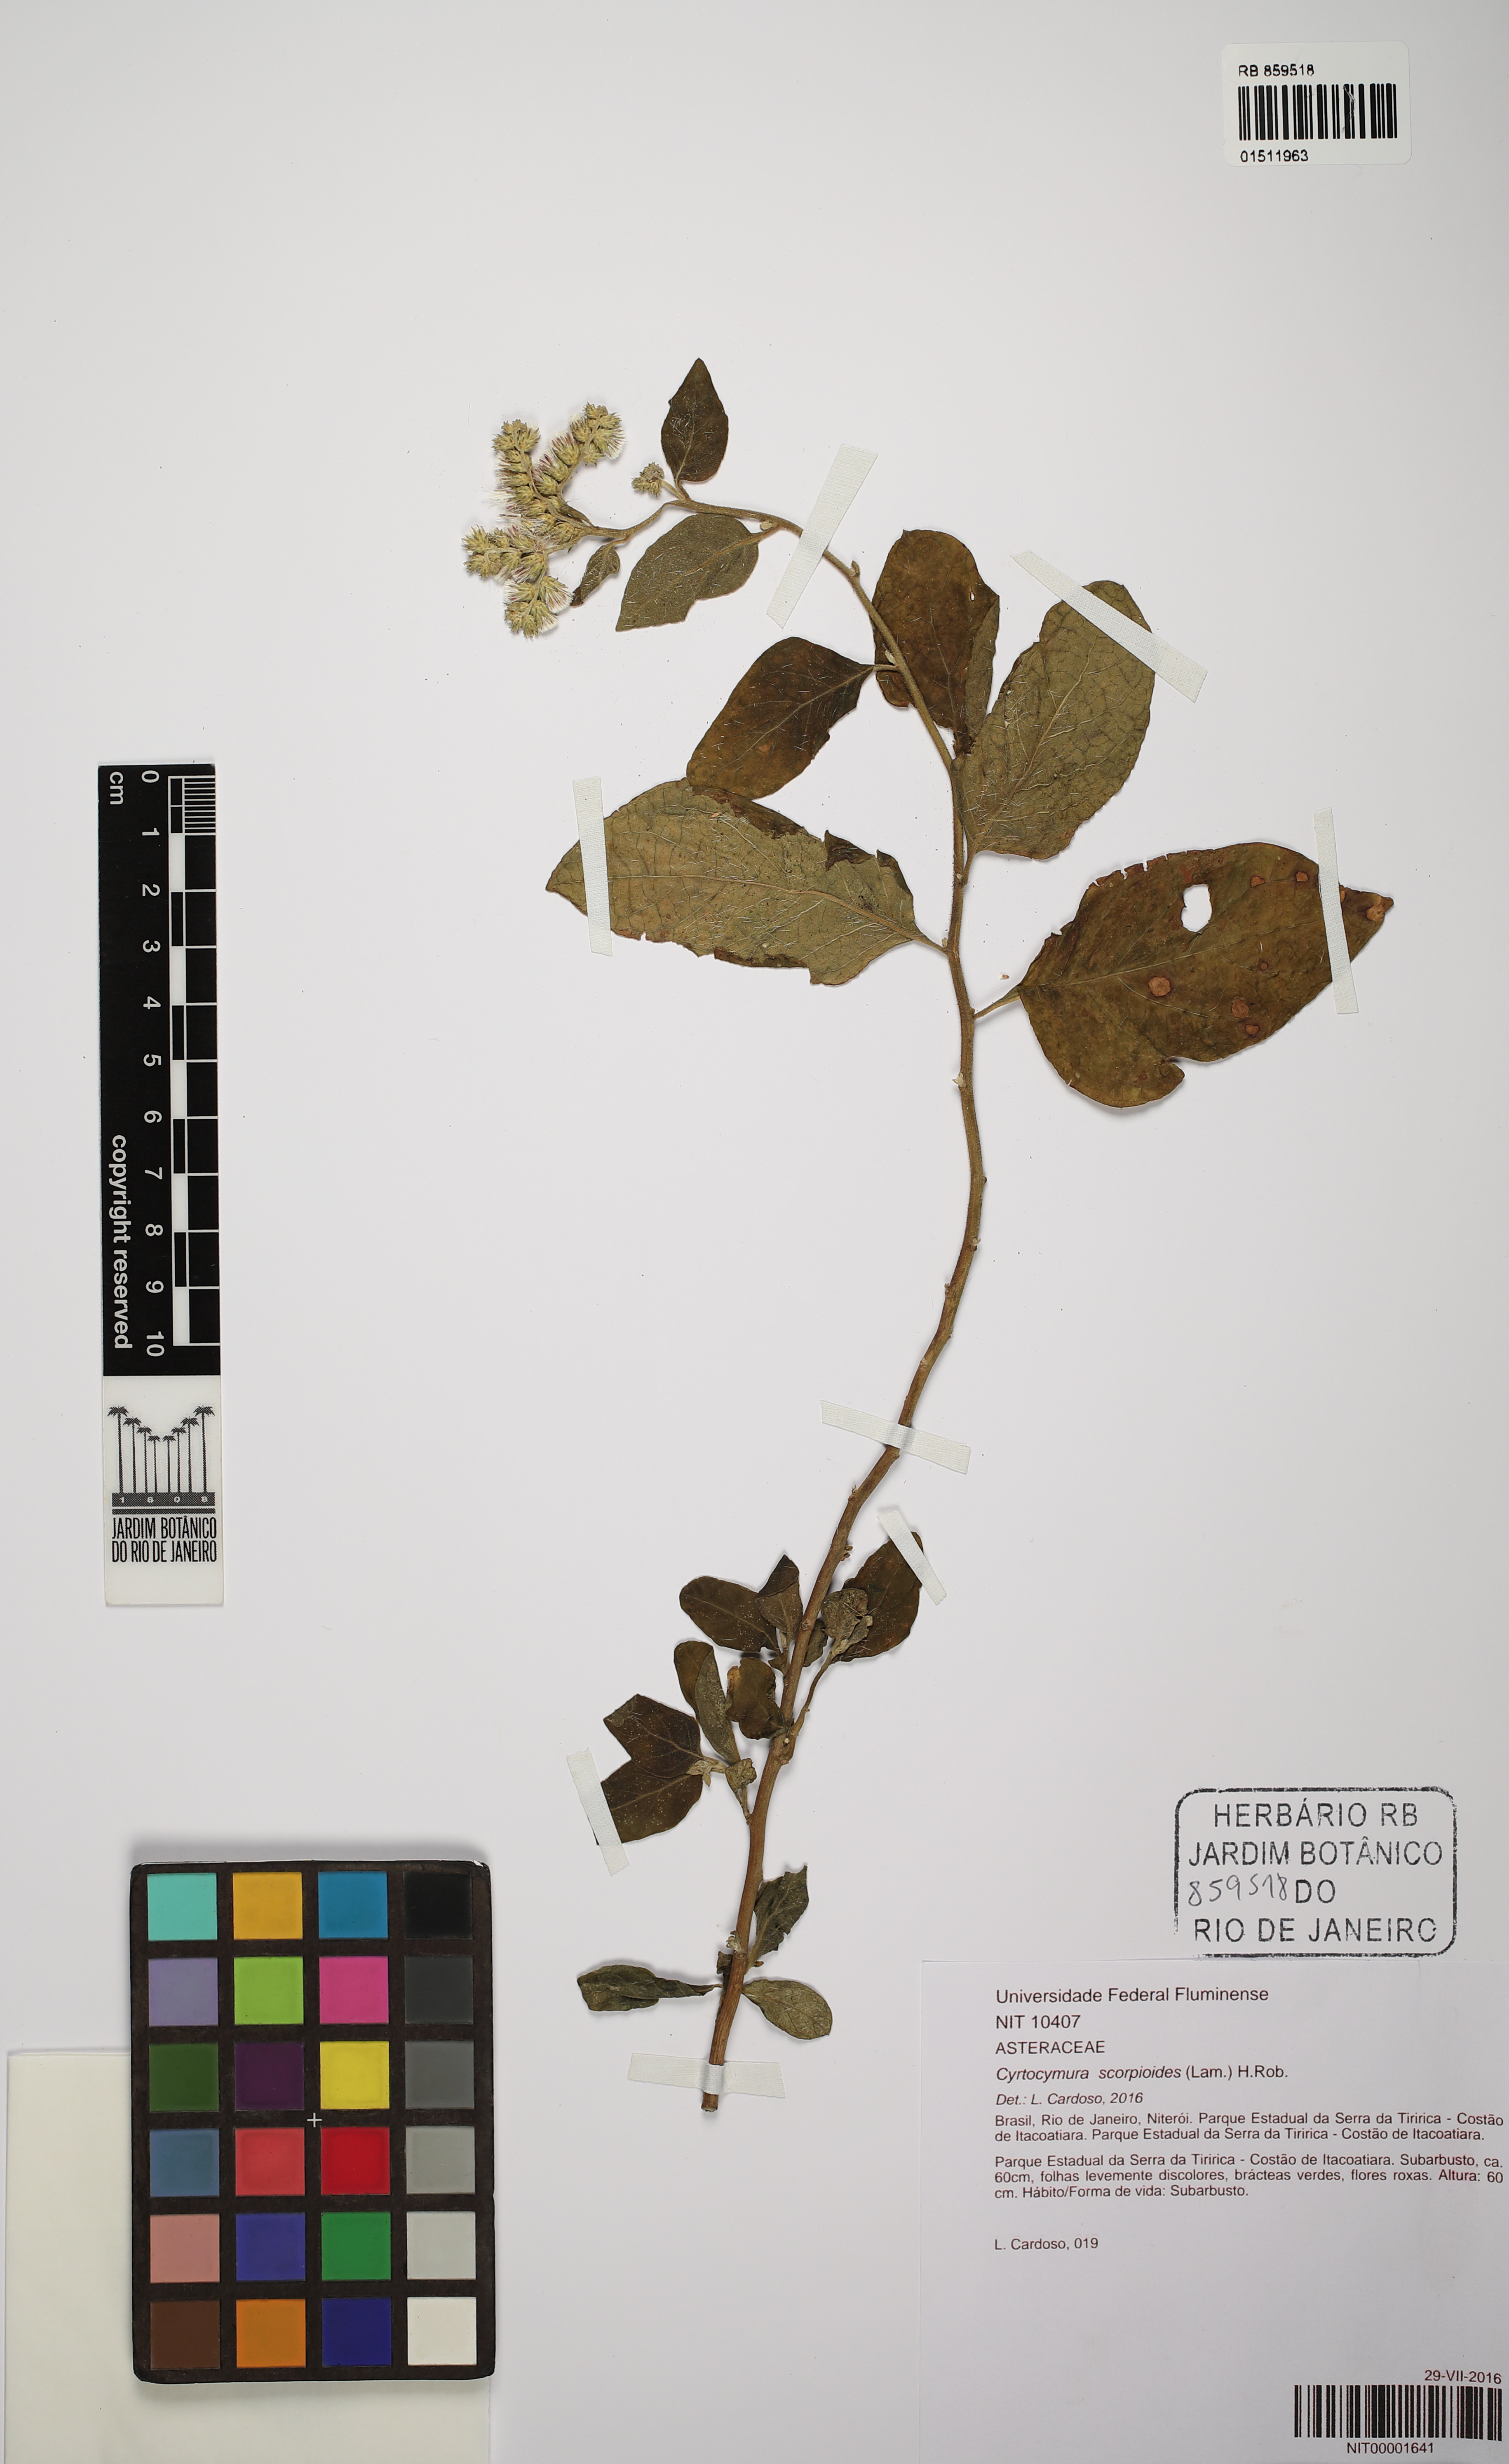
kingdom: Plantae
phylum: Tracheophyta
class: Magnoliopsida
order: Asterales
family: Asteraceae
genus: Cyrtocymura
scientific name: Cyrtocymura scorpioides
